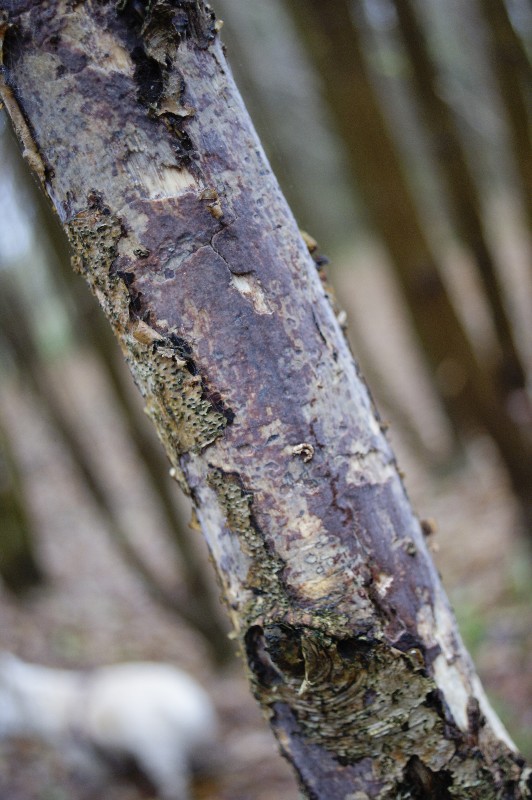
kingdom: Fungi
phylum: Basidiomycota
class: Agaricomycetes
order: Corticiales
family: Vuilleminiaceae
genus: Vuilleminia
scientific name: Vuilleminia comedens
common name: almindelig barksprænger
